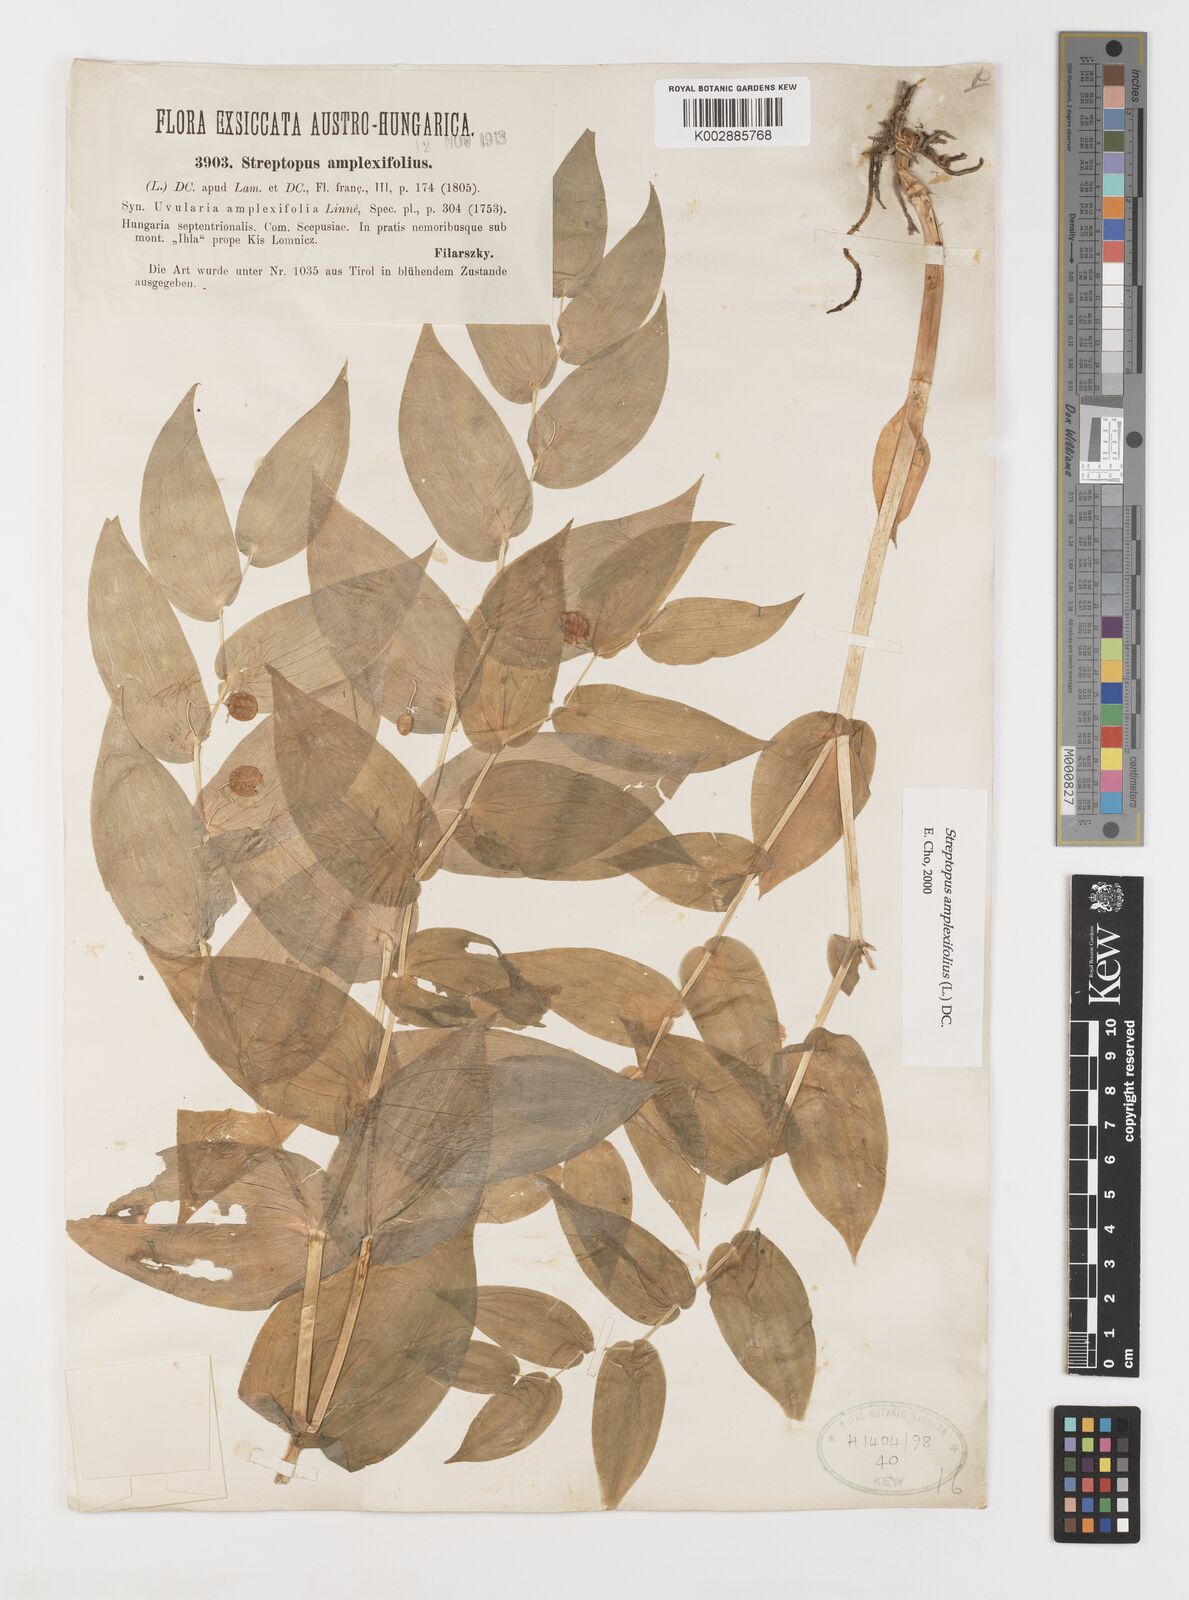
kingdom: Plantae
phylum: Tracheophyta
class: Liliopsida
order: Liliales
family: Liliaceae
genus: Streptopus
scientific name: Streptopus amplexifolius
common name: Clasp twisted stalk
